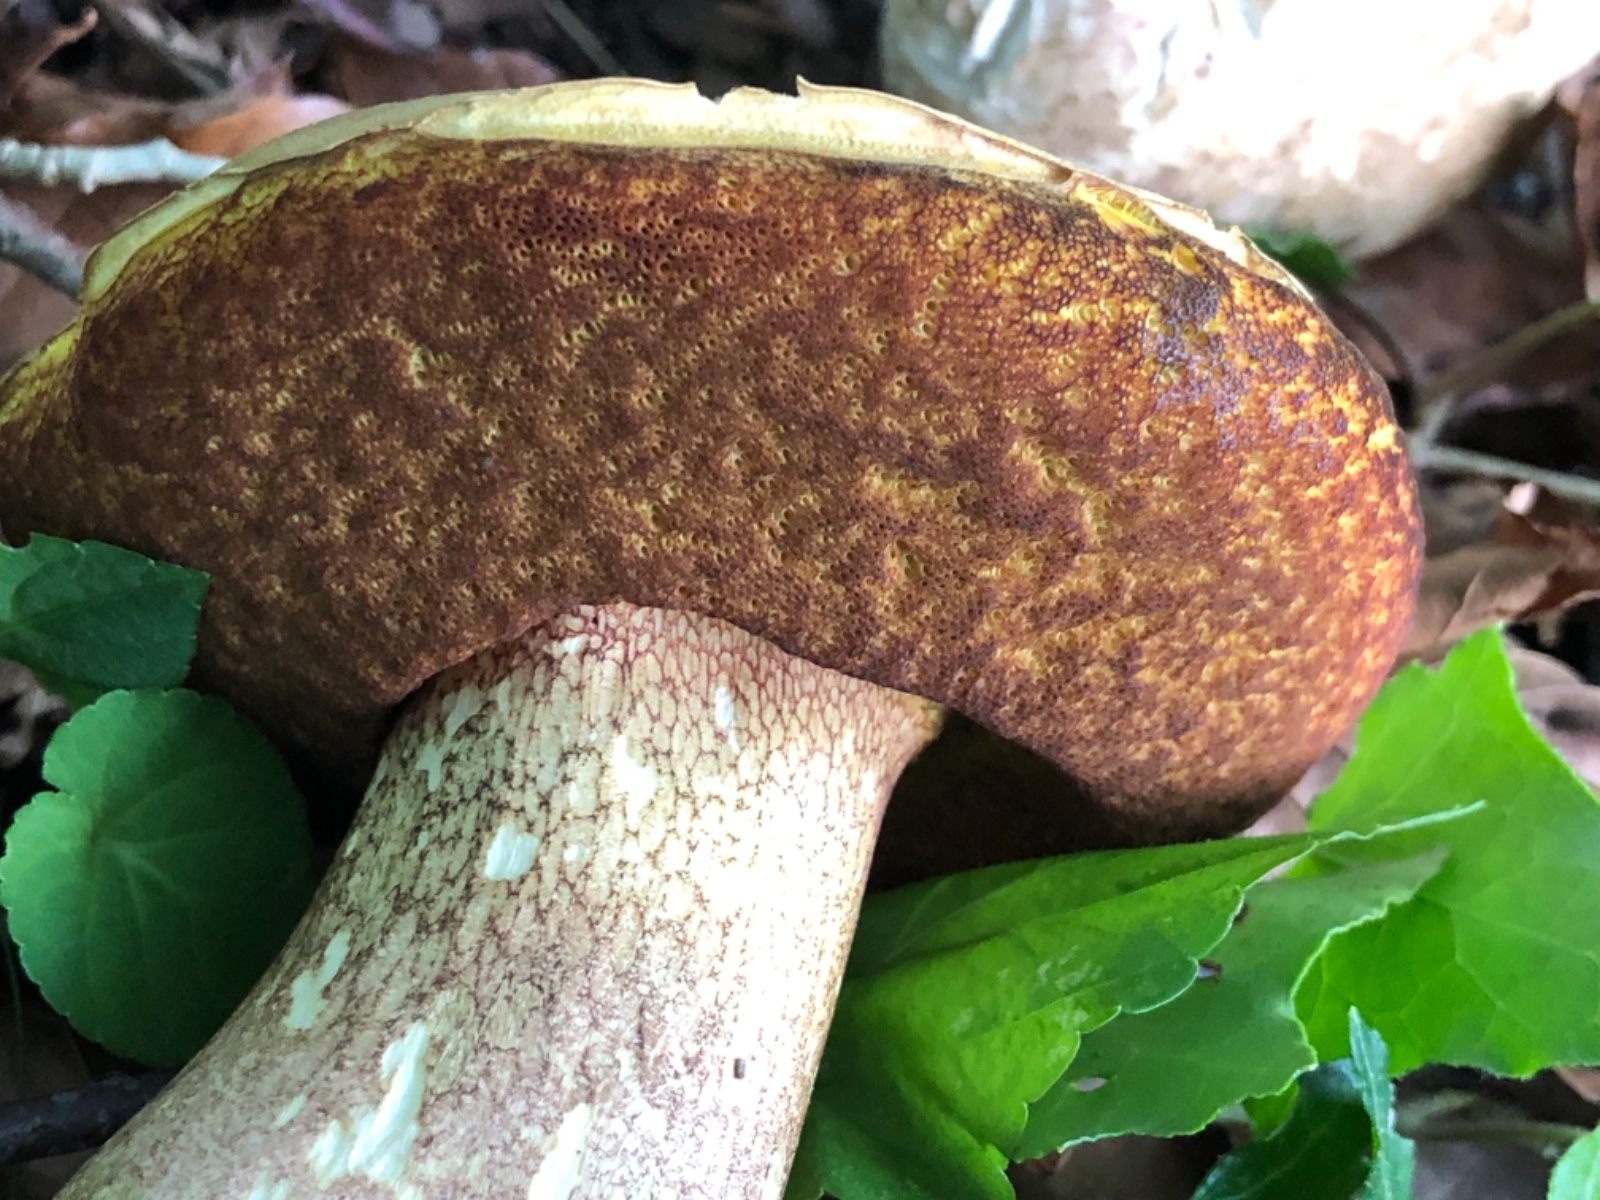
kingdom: Fungi
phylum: Basidiomycota
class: Agaricomycetes
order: Boletales
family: Boletaceae
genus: Suillellus
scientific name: Suillellus luridus
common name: netstokket indigorørhat
